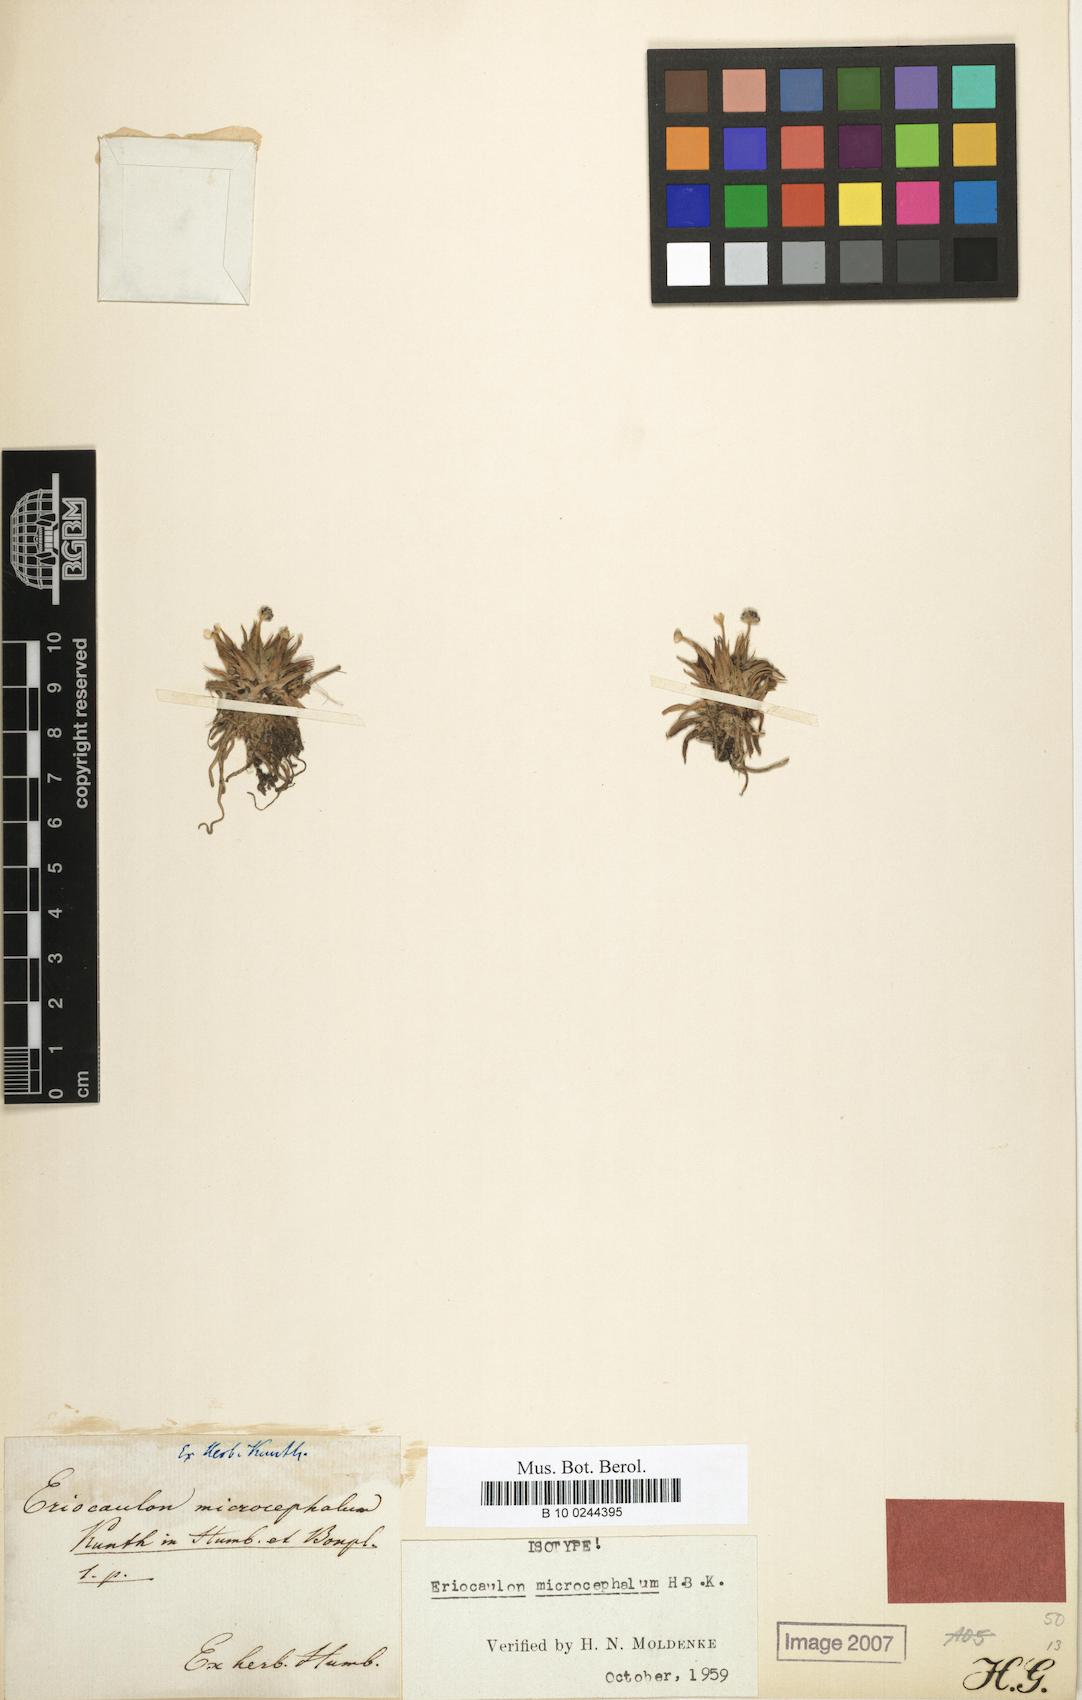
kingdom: Plantae
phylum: Tracheophyta
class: Liliopsida
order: Poales
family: Eriocaulaceae
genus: Eriocaulon
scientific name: Eriocaulon microcephalum
